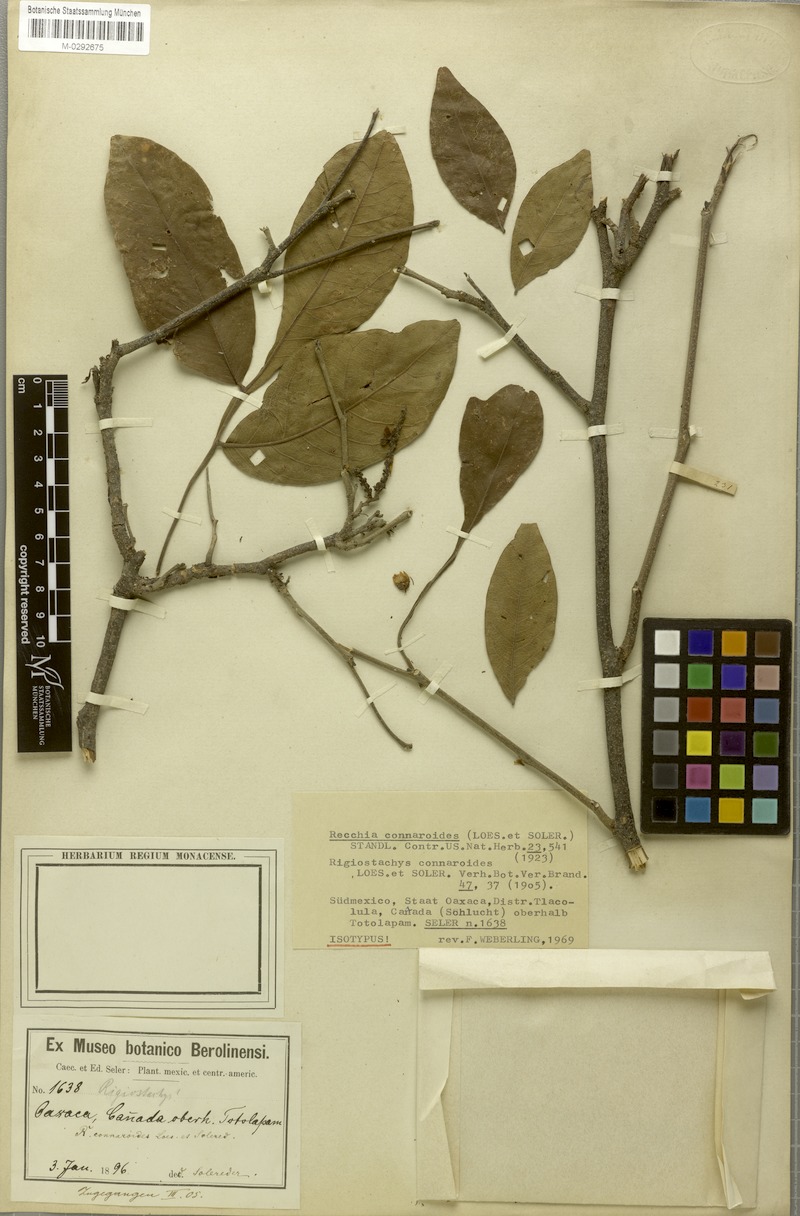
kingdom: Plantae
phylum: Tracheophyta
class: Magnoliopsida
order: Fabales
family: Surianaceae
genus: Recchia
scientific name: Recchia connaroides
